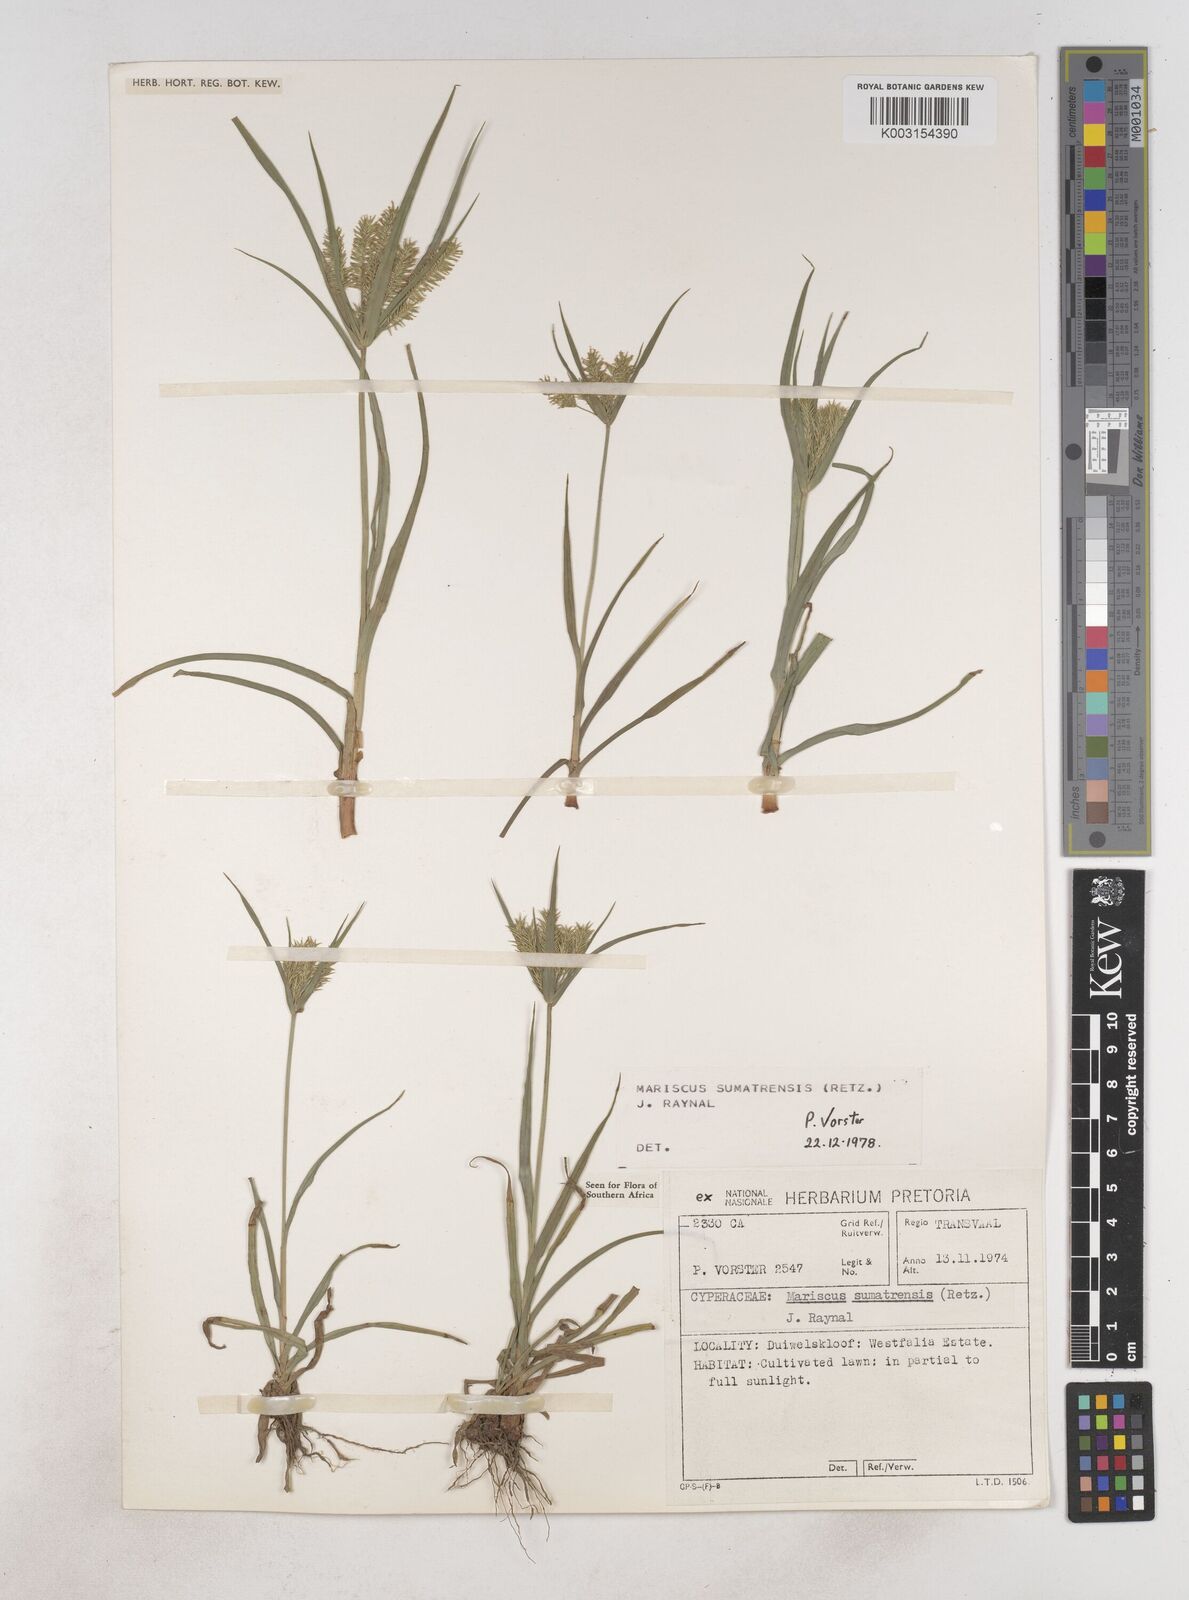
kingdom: Plantae
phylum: Tracheophyta
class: Liliopsida
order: Poales
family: Cyperaceae
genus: Cyperus
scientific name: Cyperus cyperoides
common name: Pacific island flat sedge
